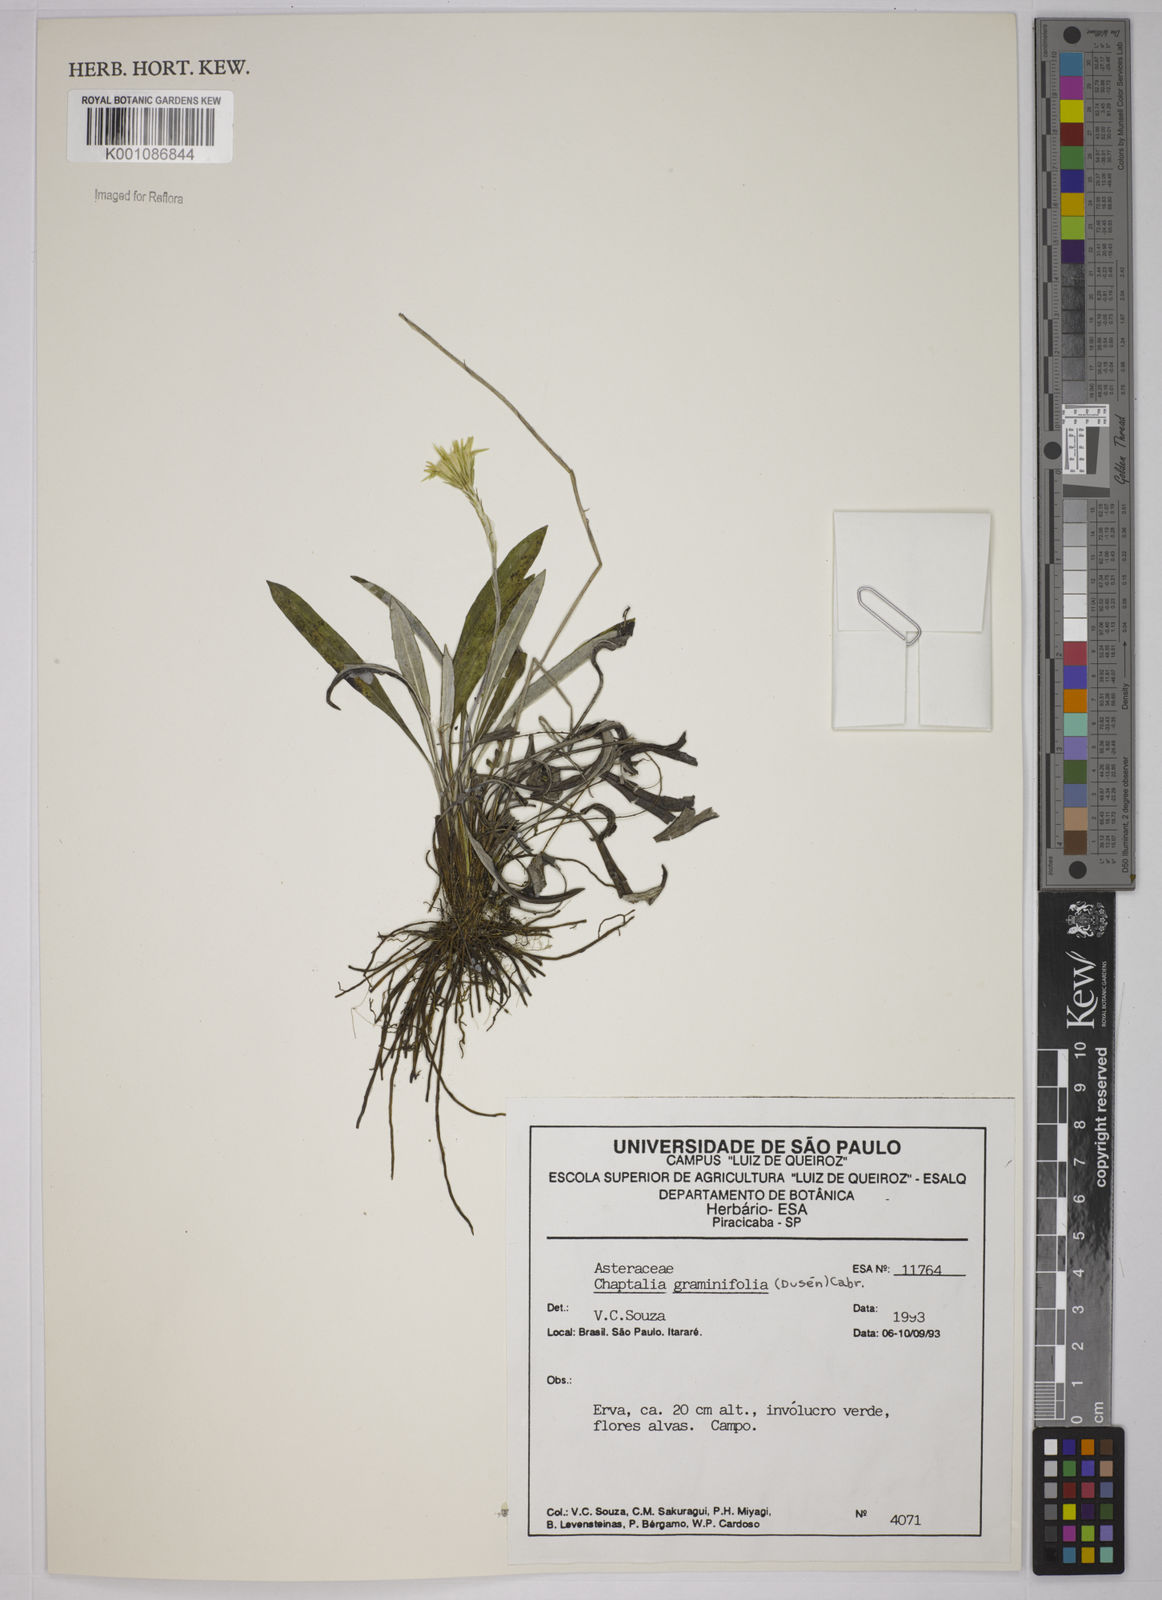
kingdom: Plantae
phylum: Tracheophyta
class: Magnoliopsida
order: Asterales
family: Asteraceae
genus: Chaptalia
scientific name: Chaptalia
